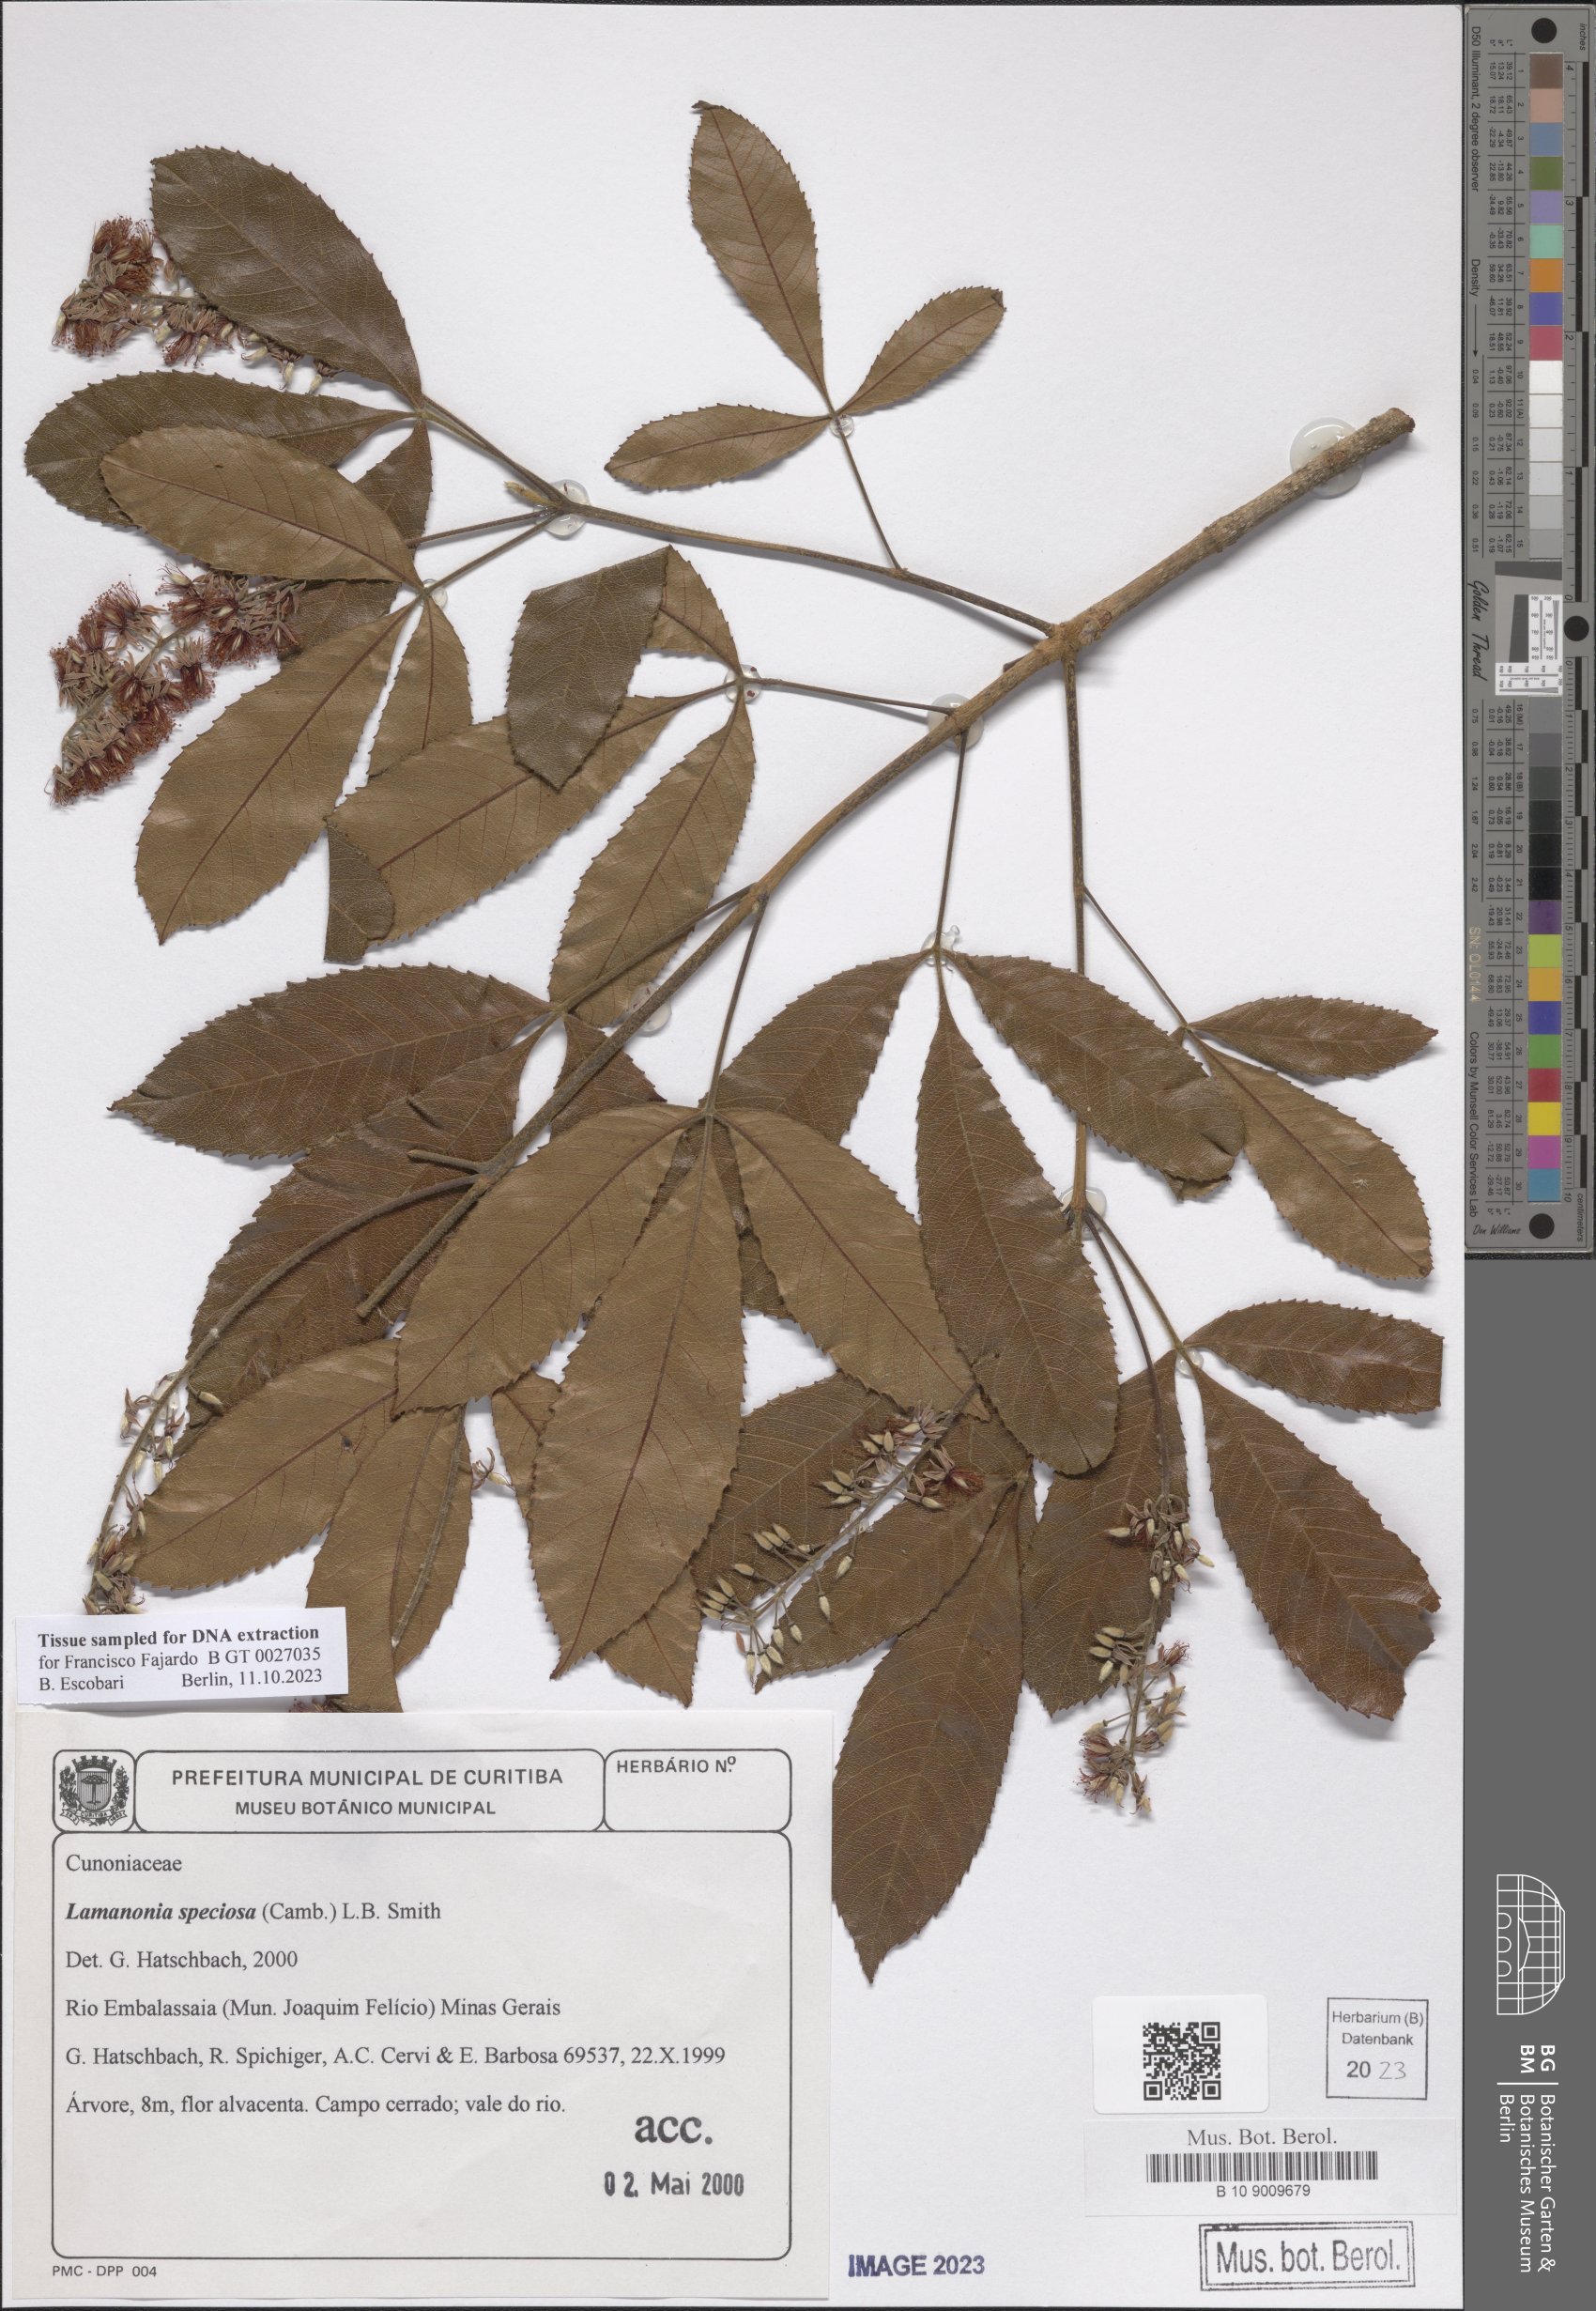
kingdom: Plantae
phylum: Tracheophyta
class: Magnoliopsida
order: Oxalidales
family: Cunoniaceae
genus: Lamanonia
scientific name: Lamanonia speciosa
